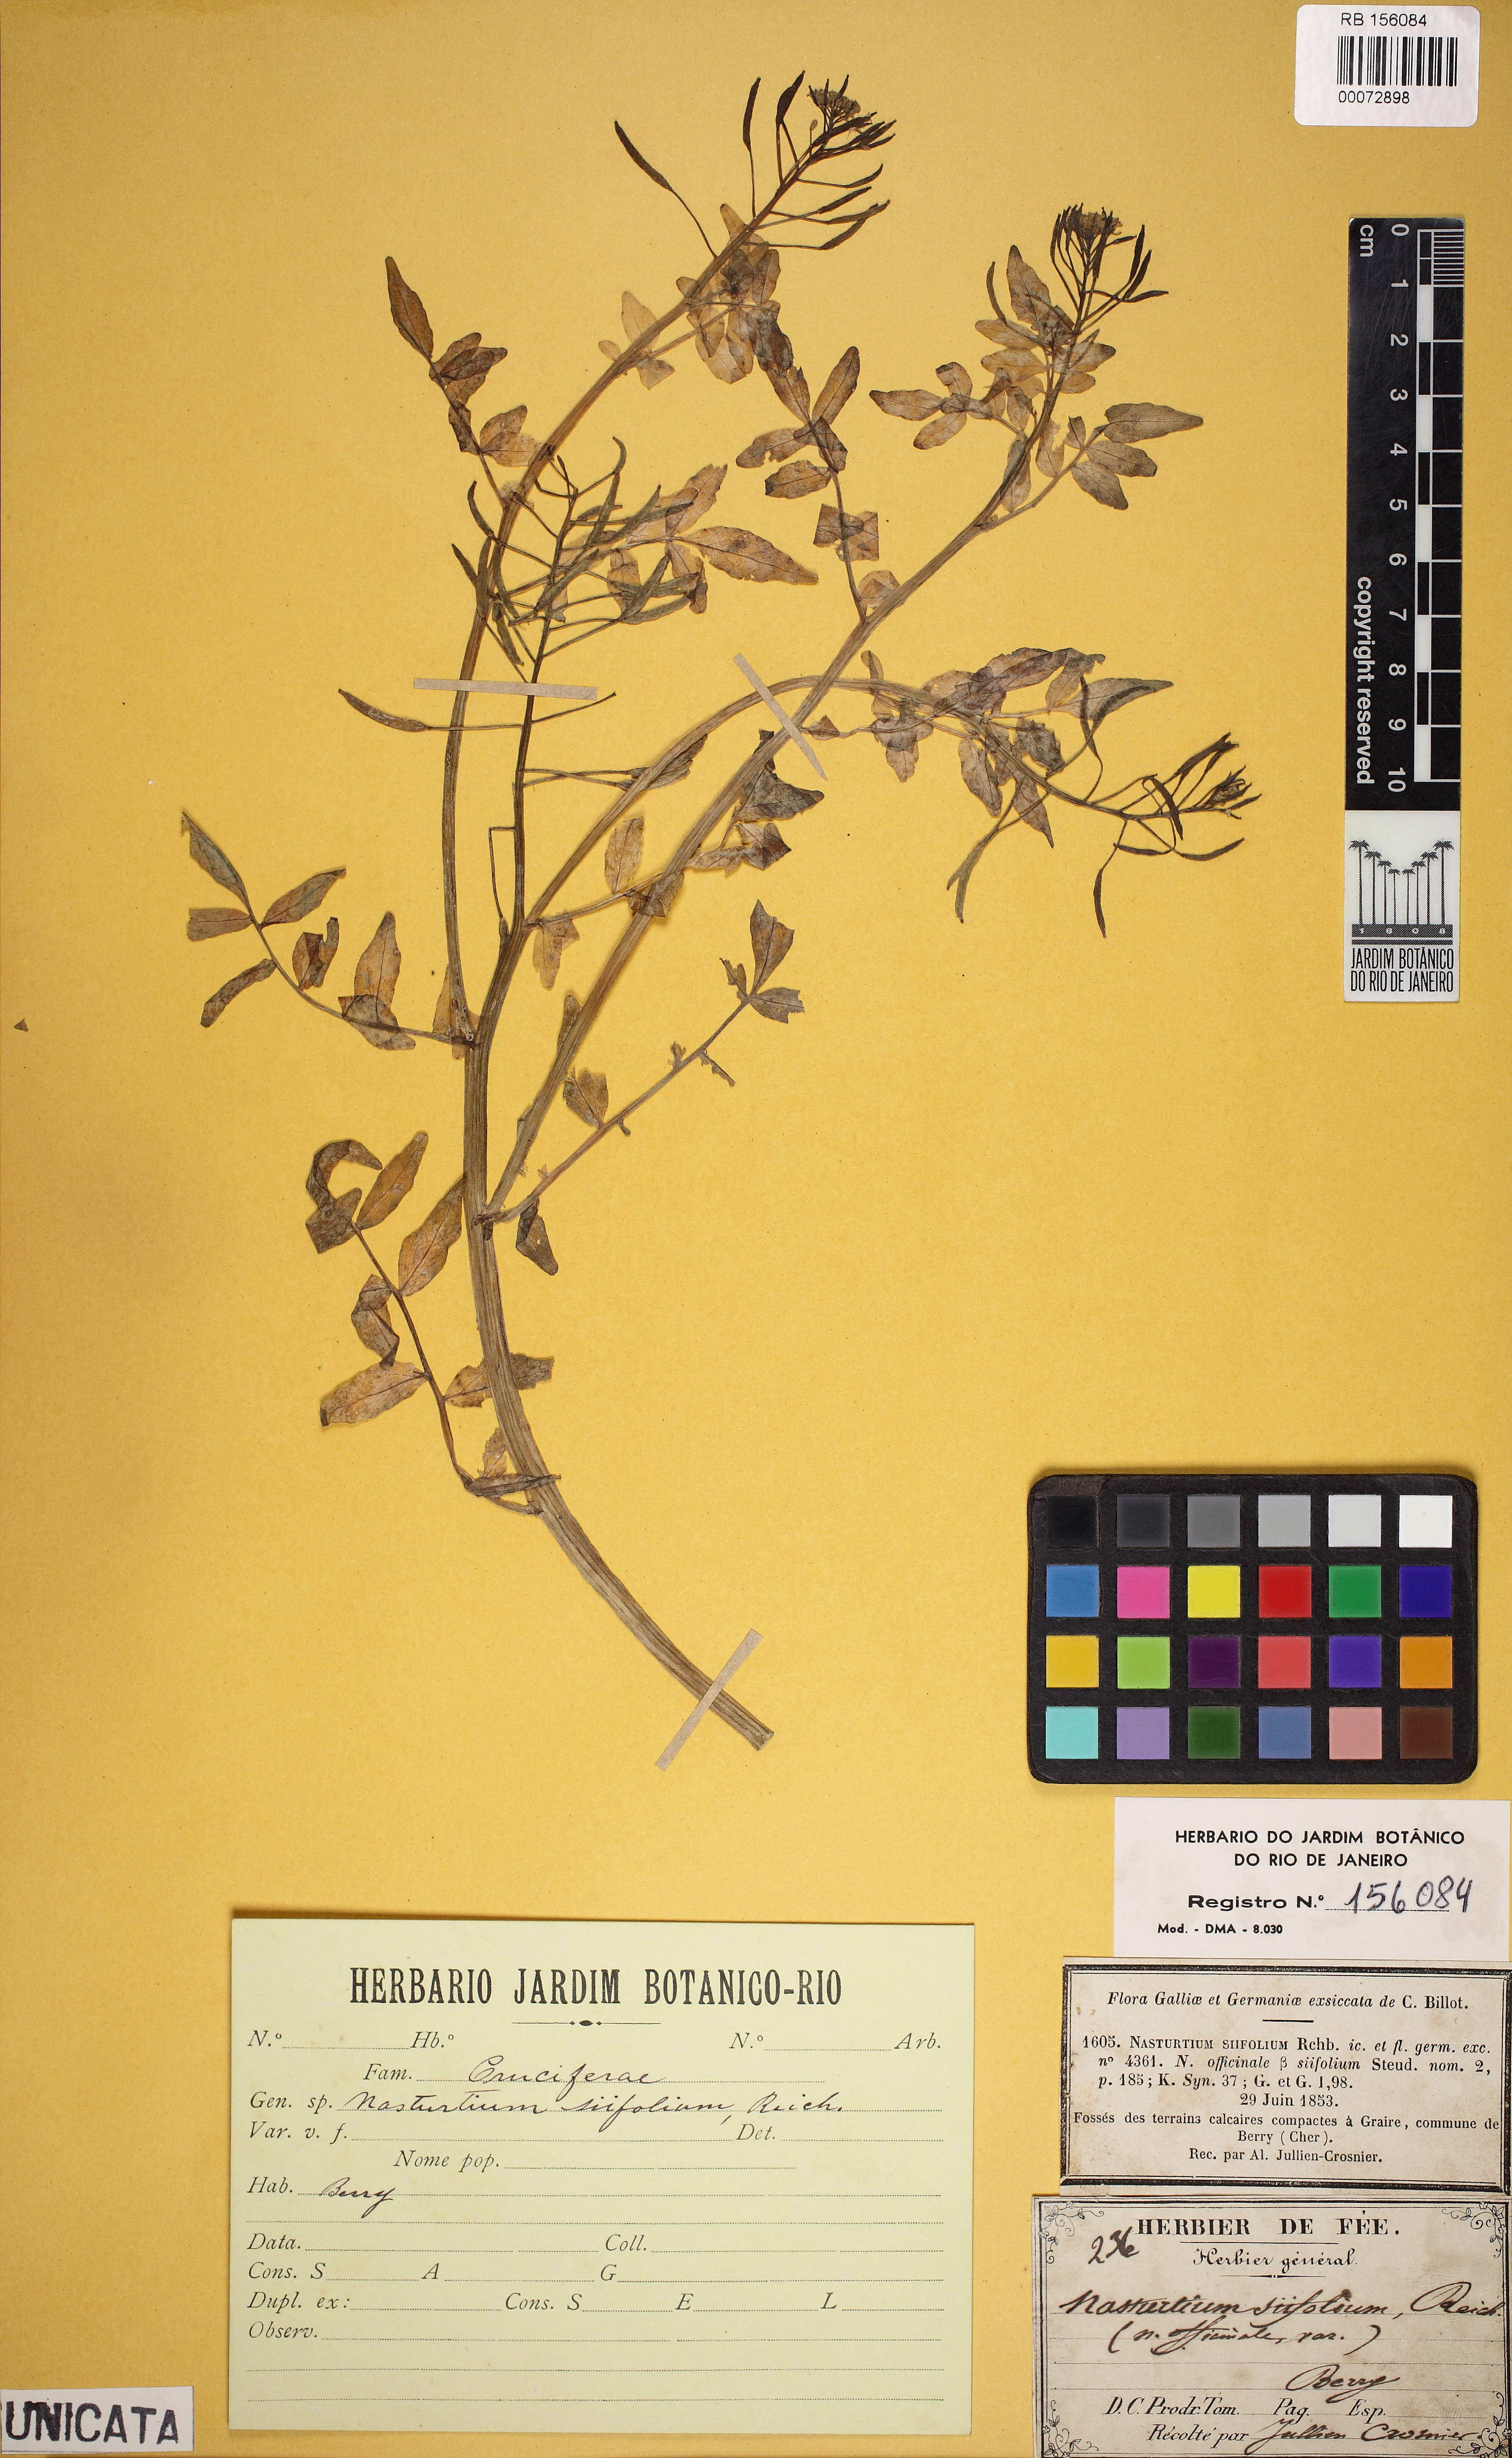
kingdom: Plantae
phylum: Tracheophyta
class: Magnoliopsida
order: Brassicales
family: Brassicaceae
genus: Nasturtium
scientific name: Nasturtium officinale
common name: Watercress
